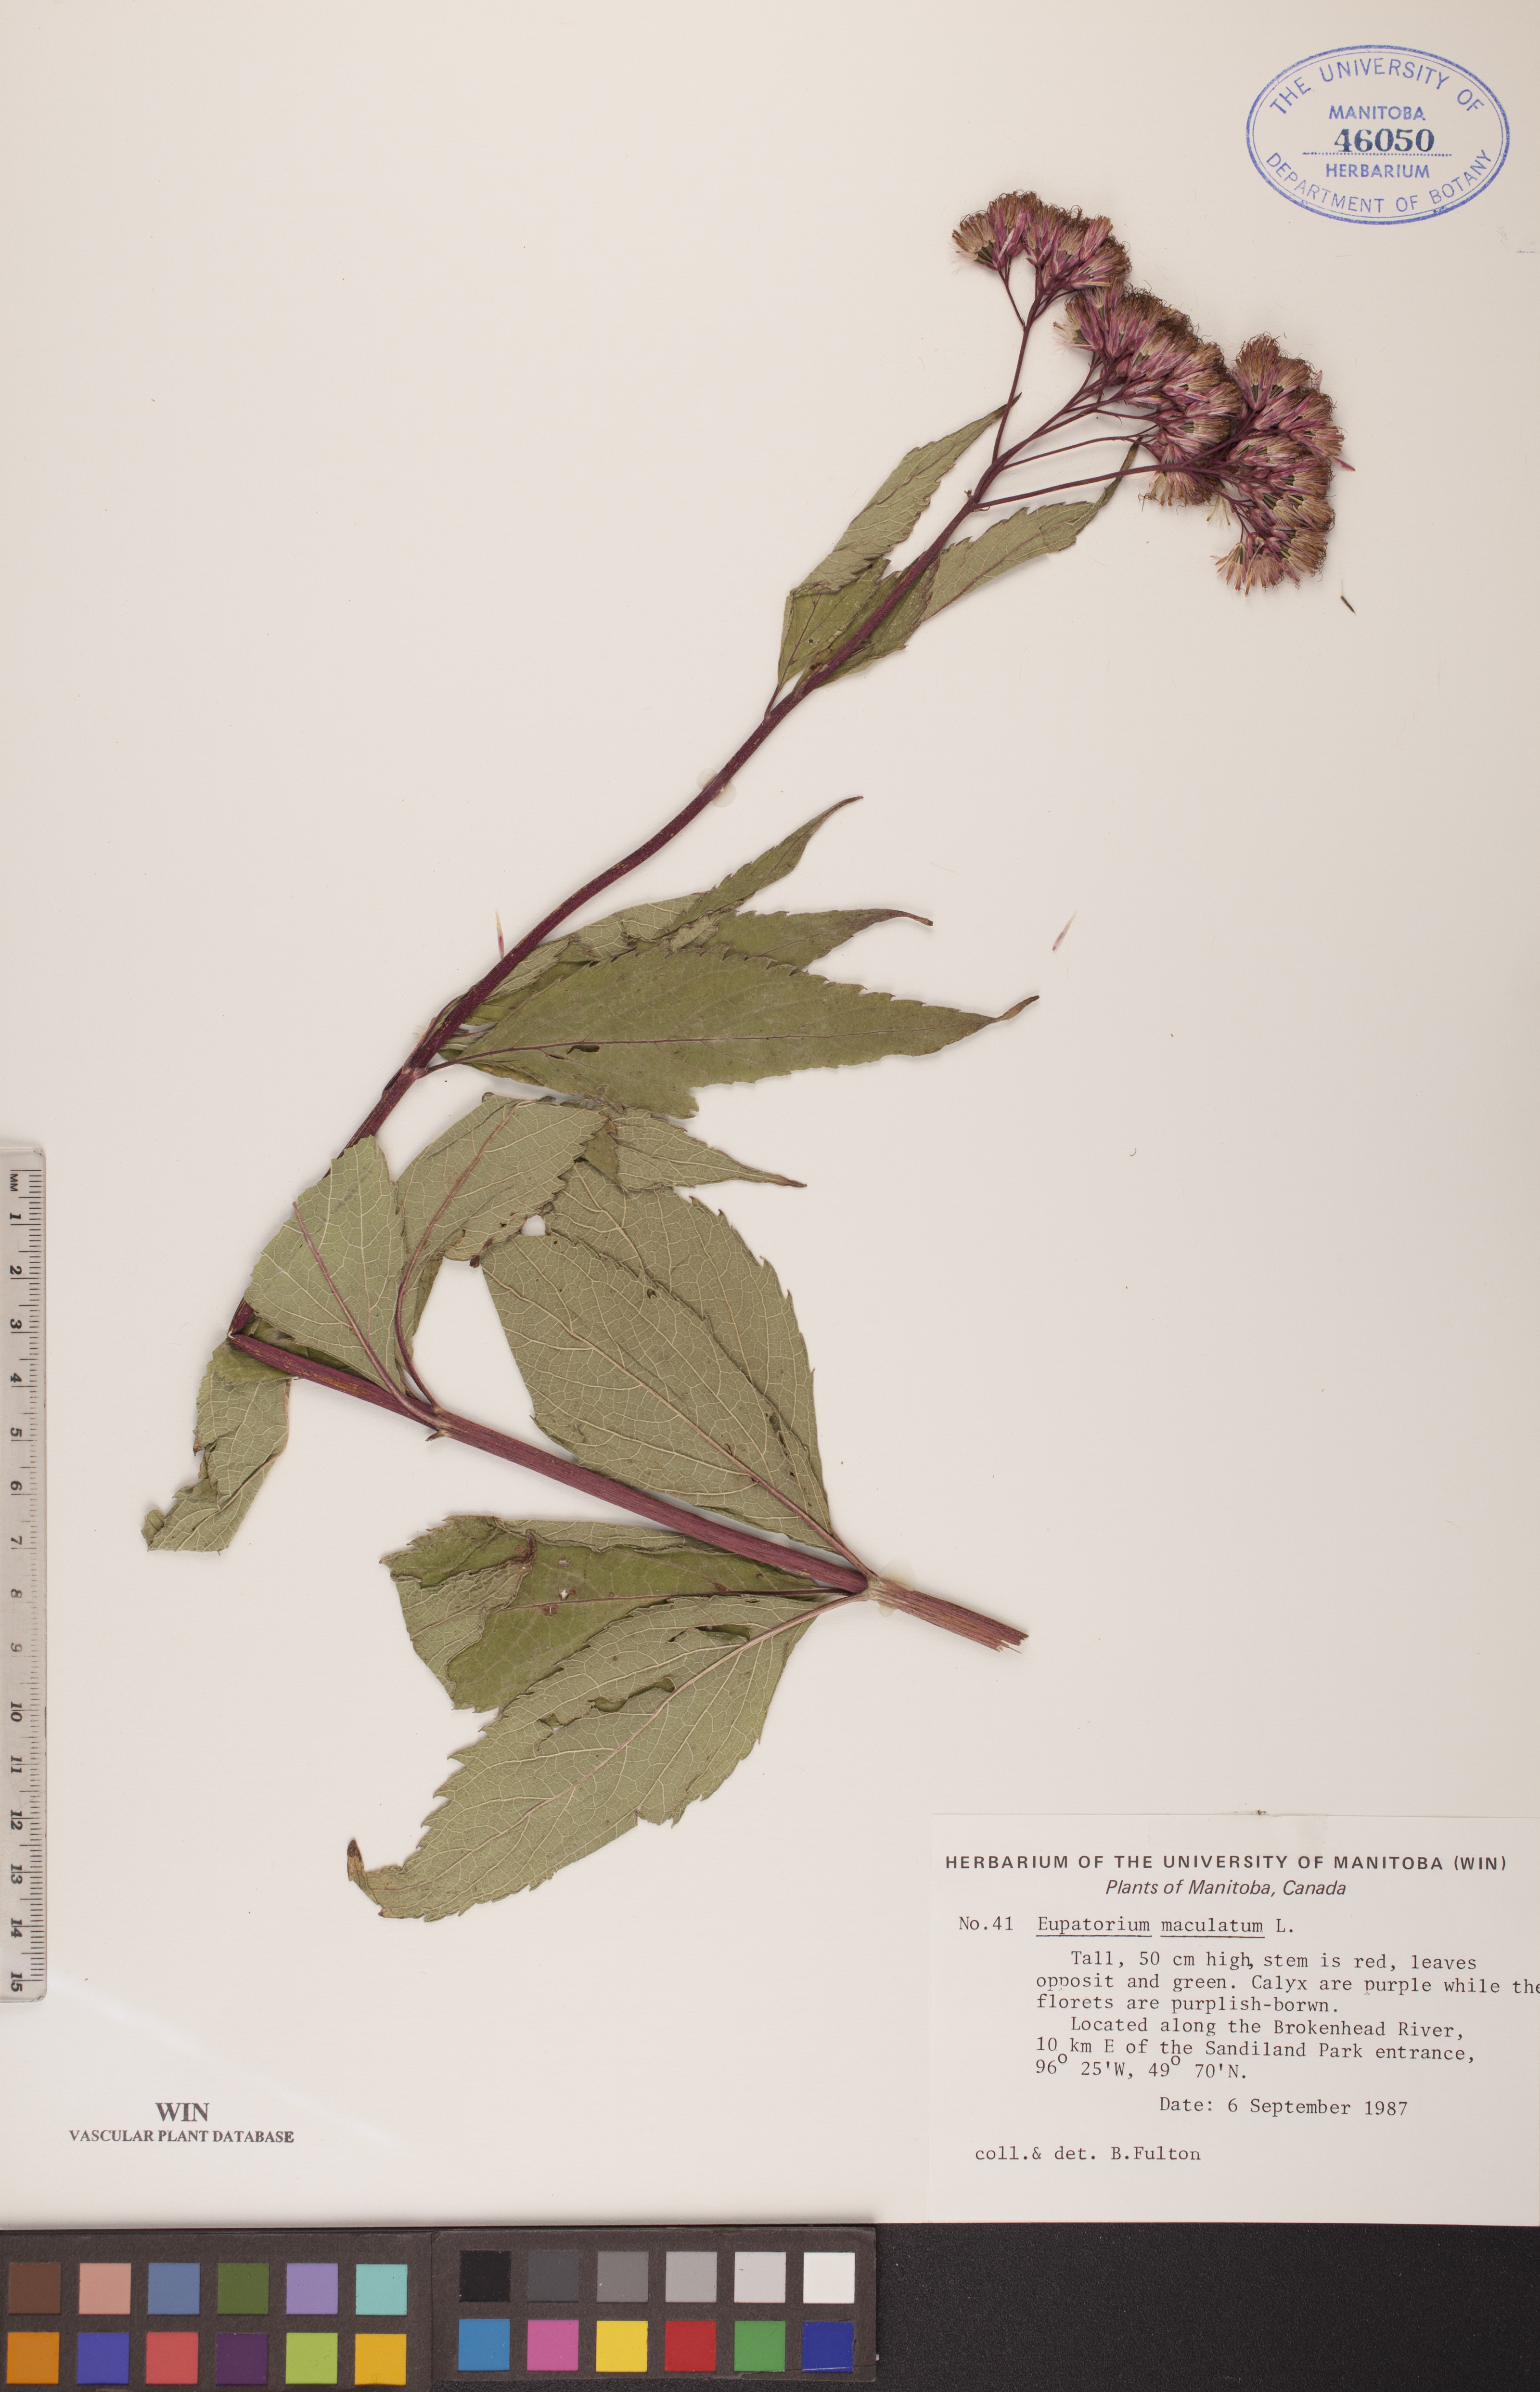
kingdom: Plantae
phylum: Tracheophyta
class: Magnoliopsida
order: Asterales
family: Asteraceae
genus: Eutrochium
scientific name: Eutrochium maculatum
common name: Spotted joe pye weed
